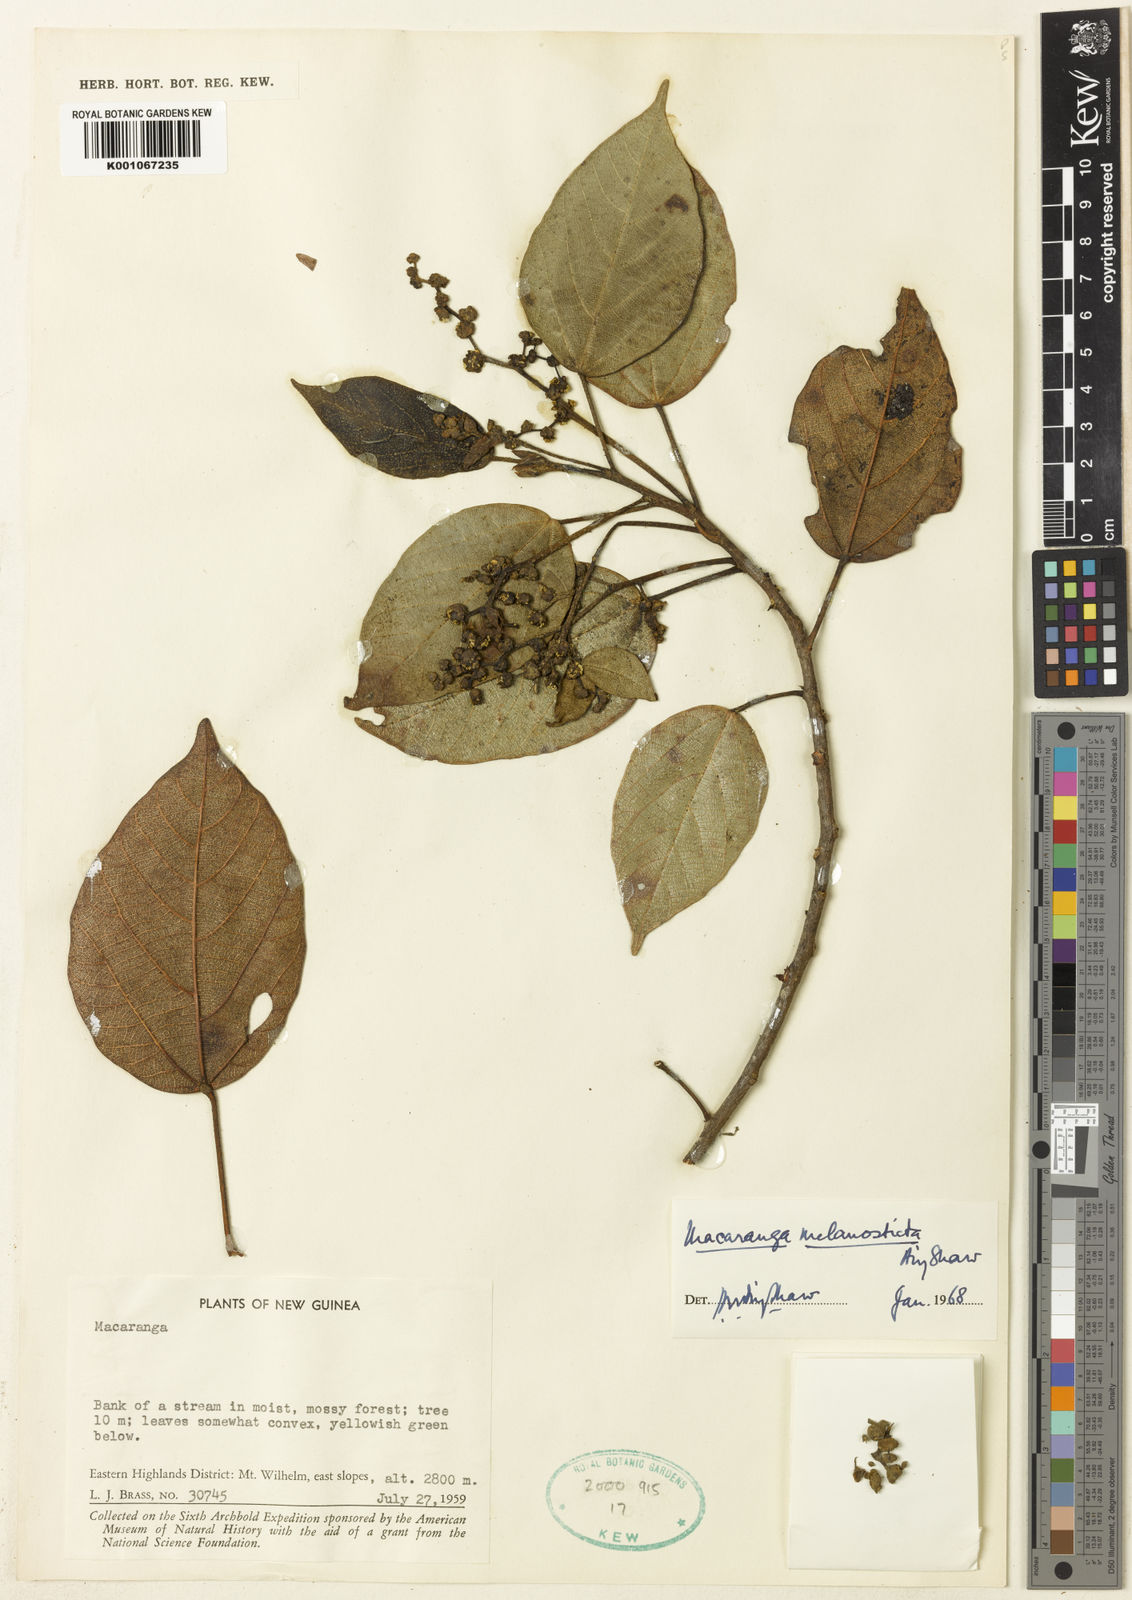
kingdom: Plantae
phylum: Tracheophyta
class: Magnoliopsida
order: Malpighiales
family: Euphorbiaceae
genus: Macaranga
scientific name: Macaranga melanosticta
